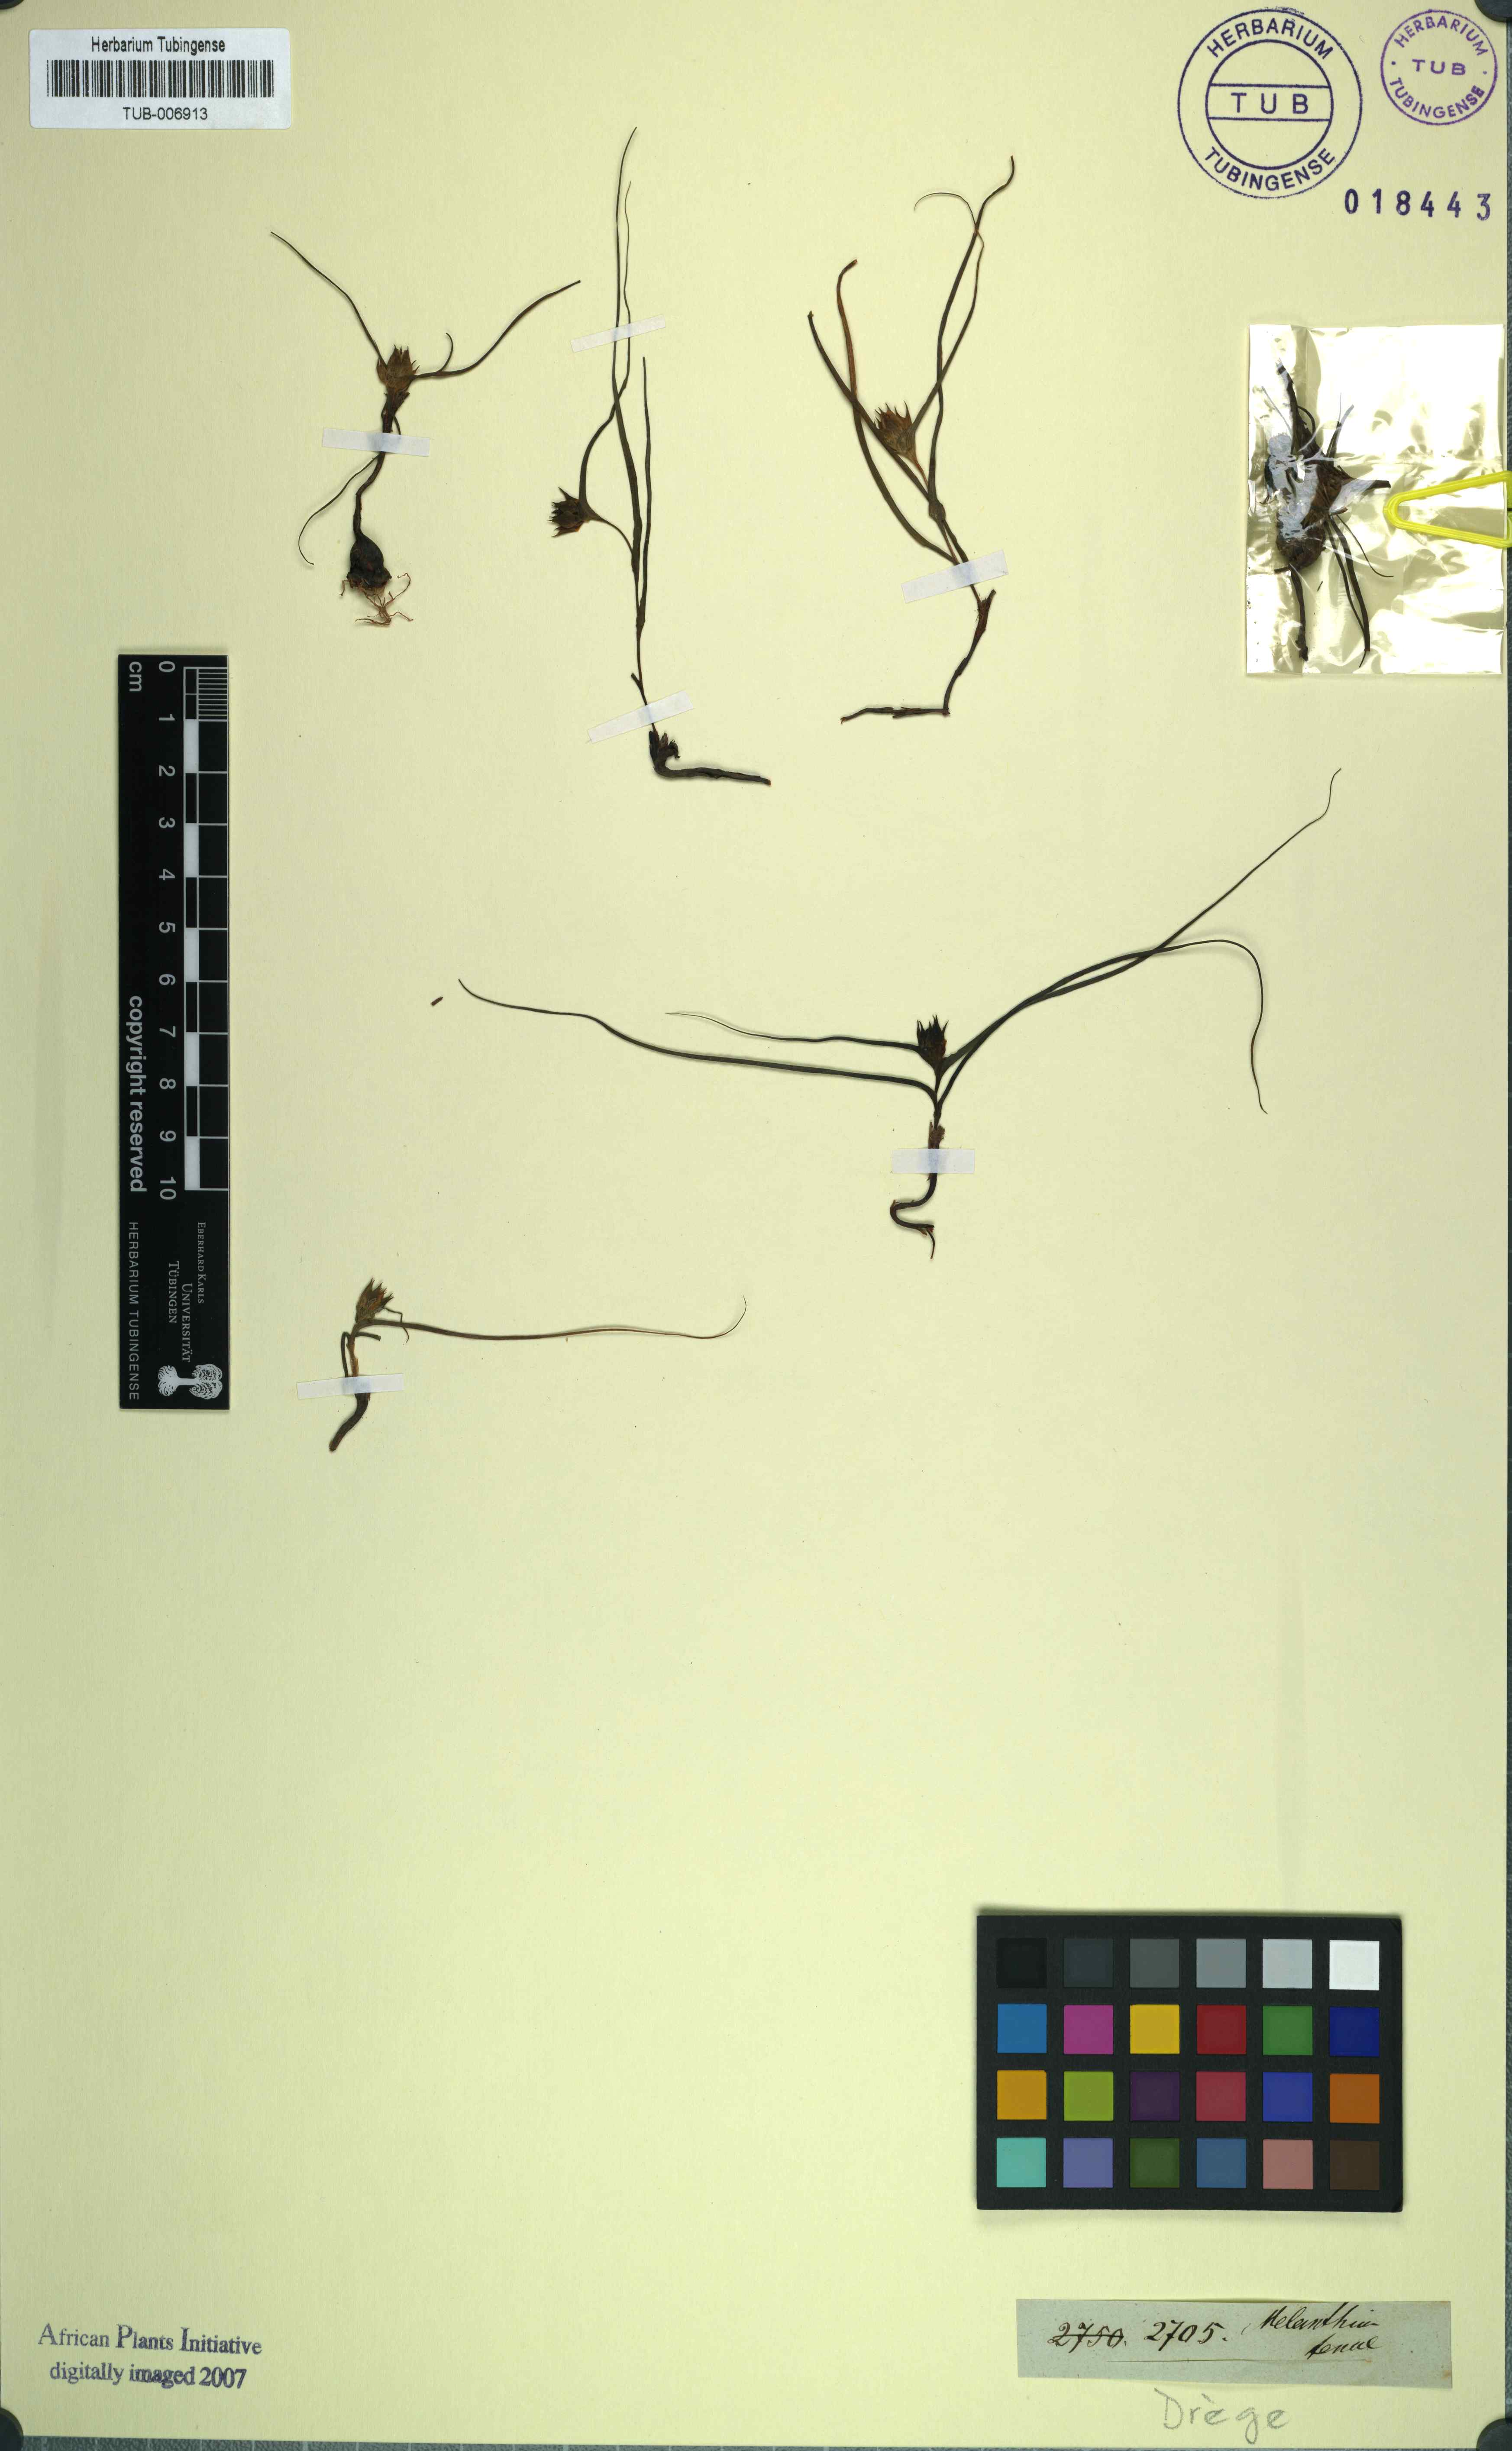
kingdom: Plantae
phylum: Tracheophyta
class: Liliopsida
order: Liliales
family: Colchicaceae
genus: Wurmbea
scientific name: Wurmbea tenuis
